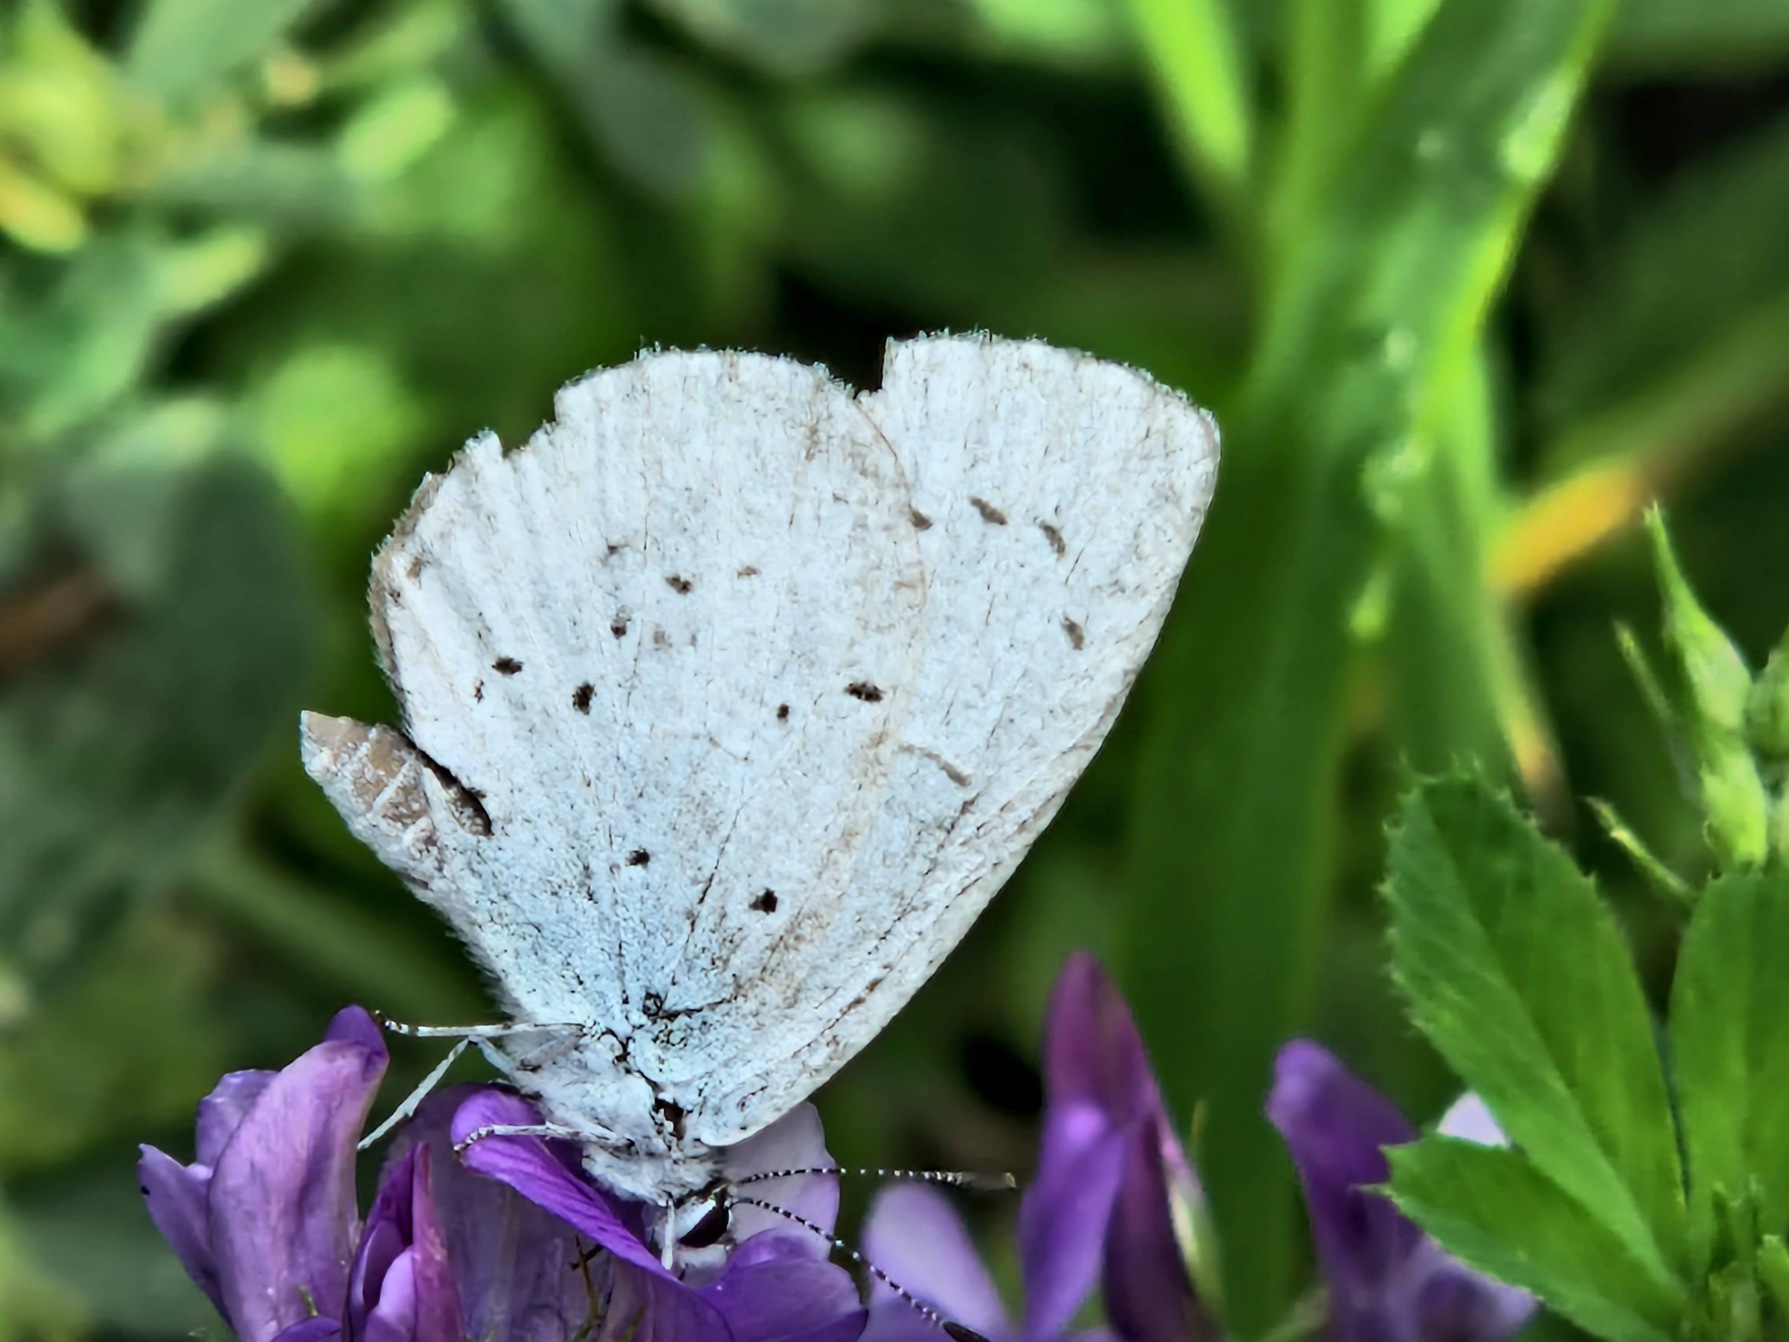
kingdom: Animalia
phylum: Arthropoda
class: Insecta
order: Lepidoptera
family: Lycaenidae
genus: Celastrina
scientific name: Celastrina argiolus
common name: Skovblåfugl
